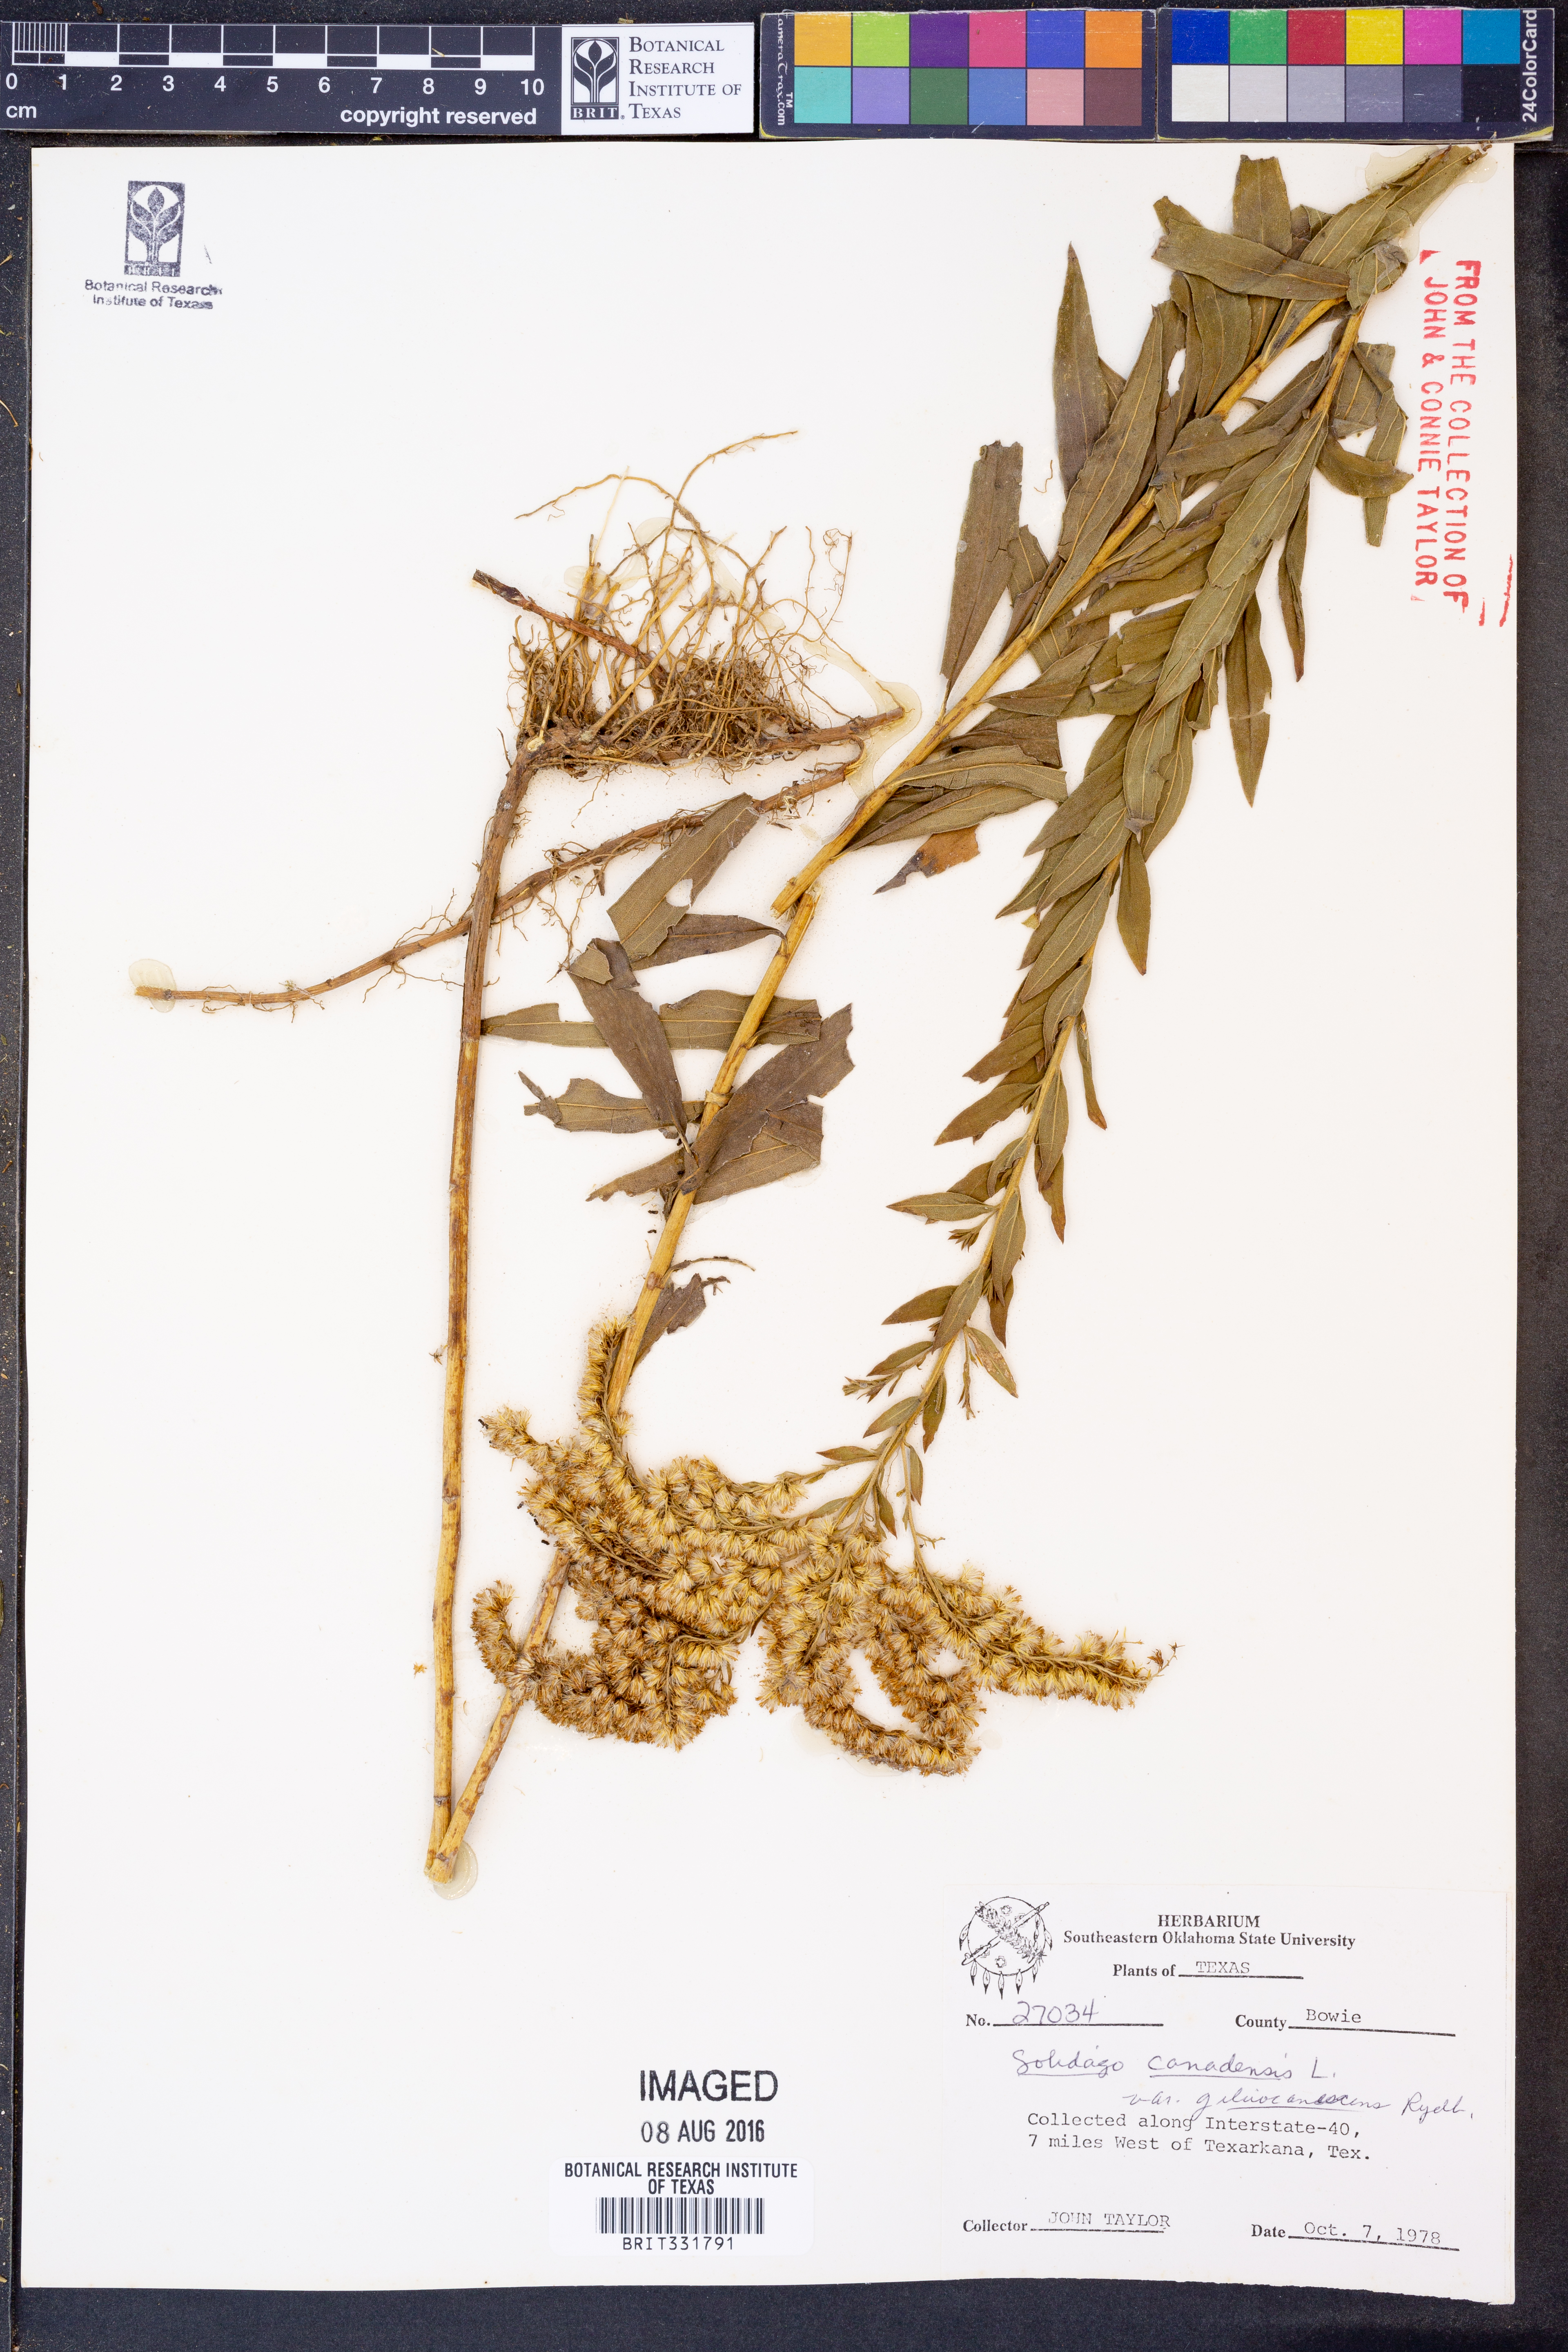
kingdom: Plantae
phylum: Tracheophyta
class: Magnoliopsida
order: Asterales
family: Asteraceae
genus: Solidago
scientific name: Solidago altissima
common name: Late goldenrod
